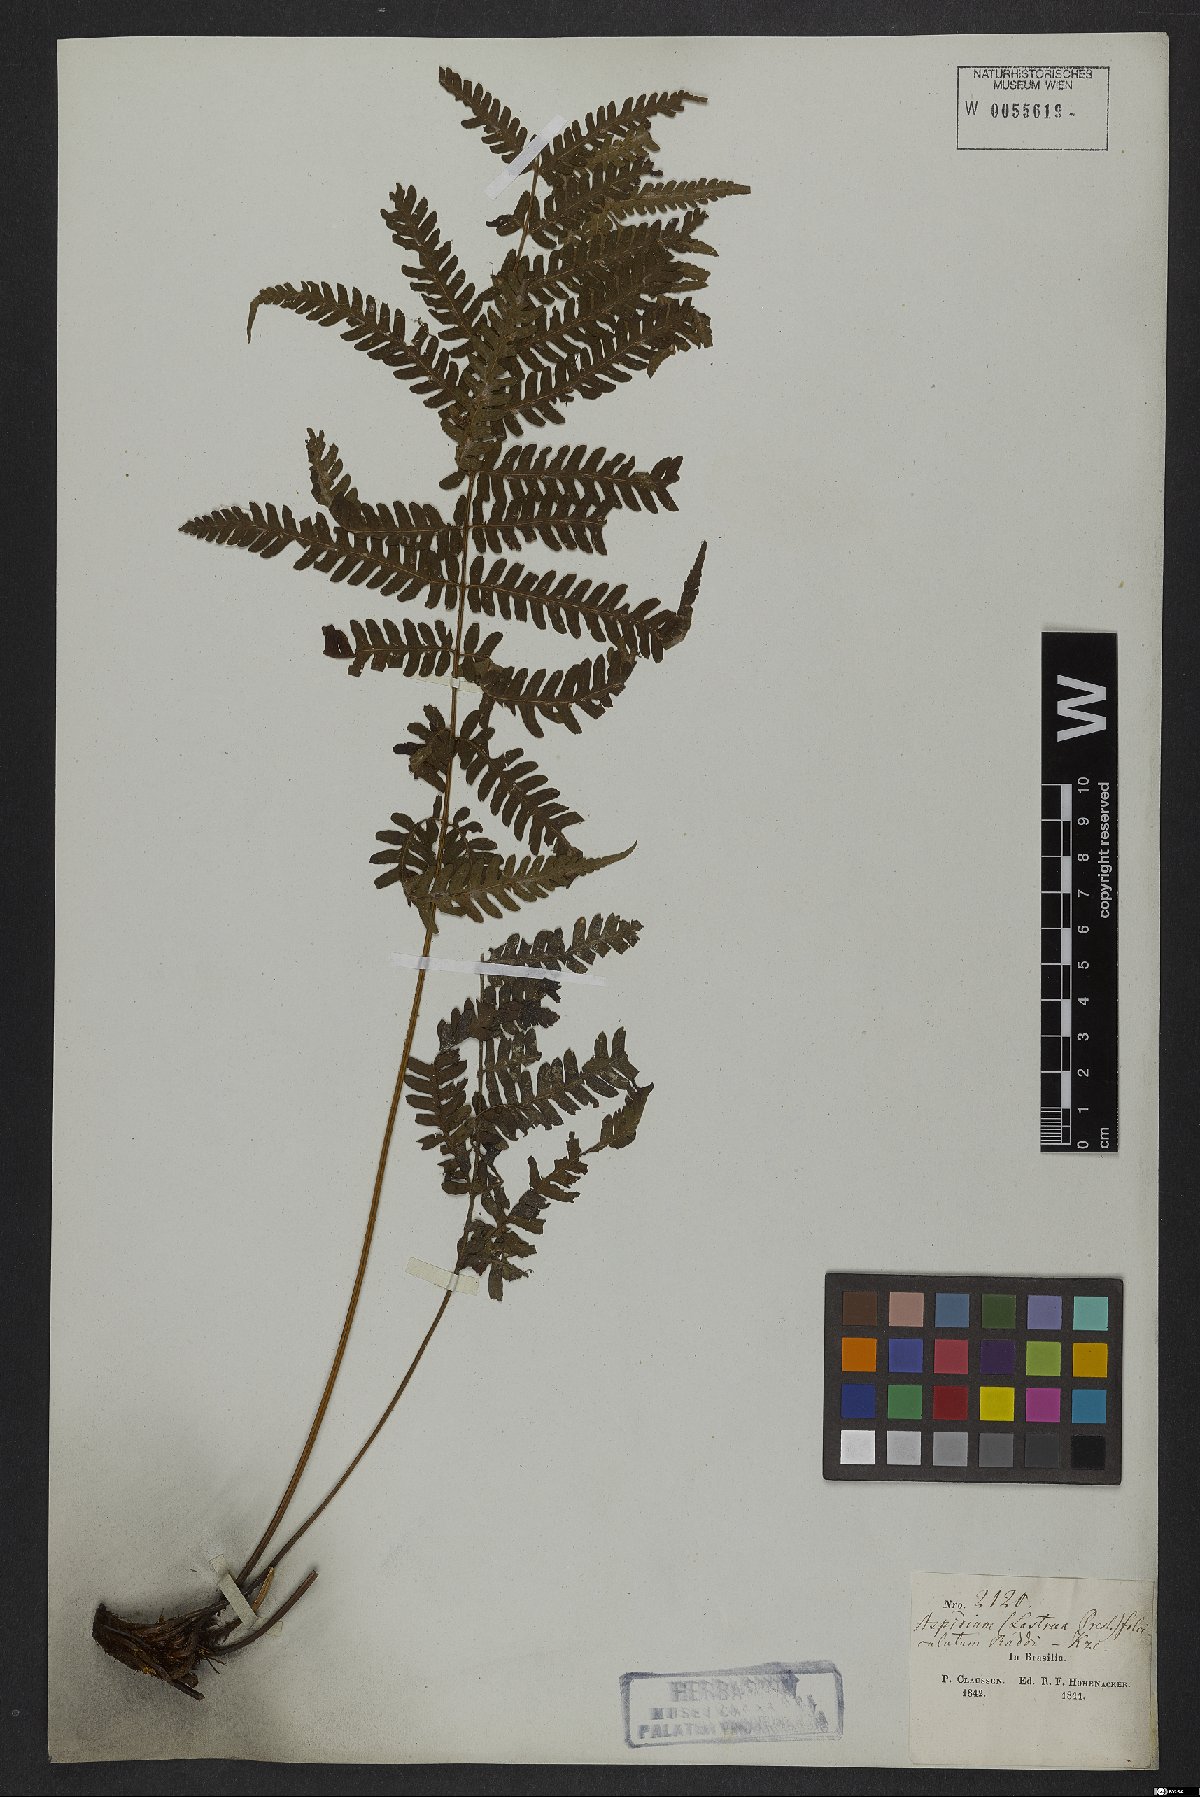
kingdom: Plantae
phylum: Tracheophyta
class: Polypodiopsida
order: Polypodiales
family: Dryopteridaceae
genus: Ctenitis
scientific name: Ctenitis falciculata
